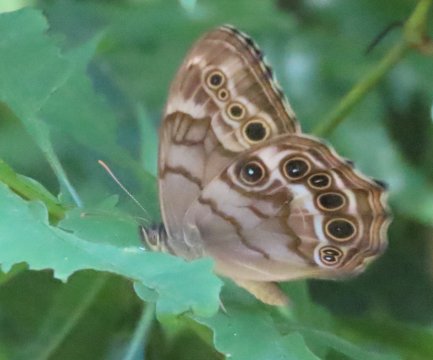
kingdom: Animalia
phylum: Arthropoda
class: Insecta
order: Lepidoptera
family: Nymphalidae
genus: Enodia
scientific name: Enodia portlandia
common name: Southern Pearly Eye
